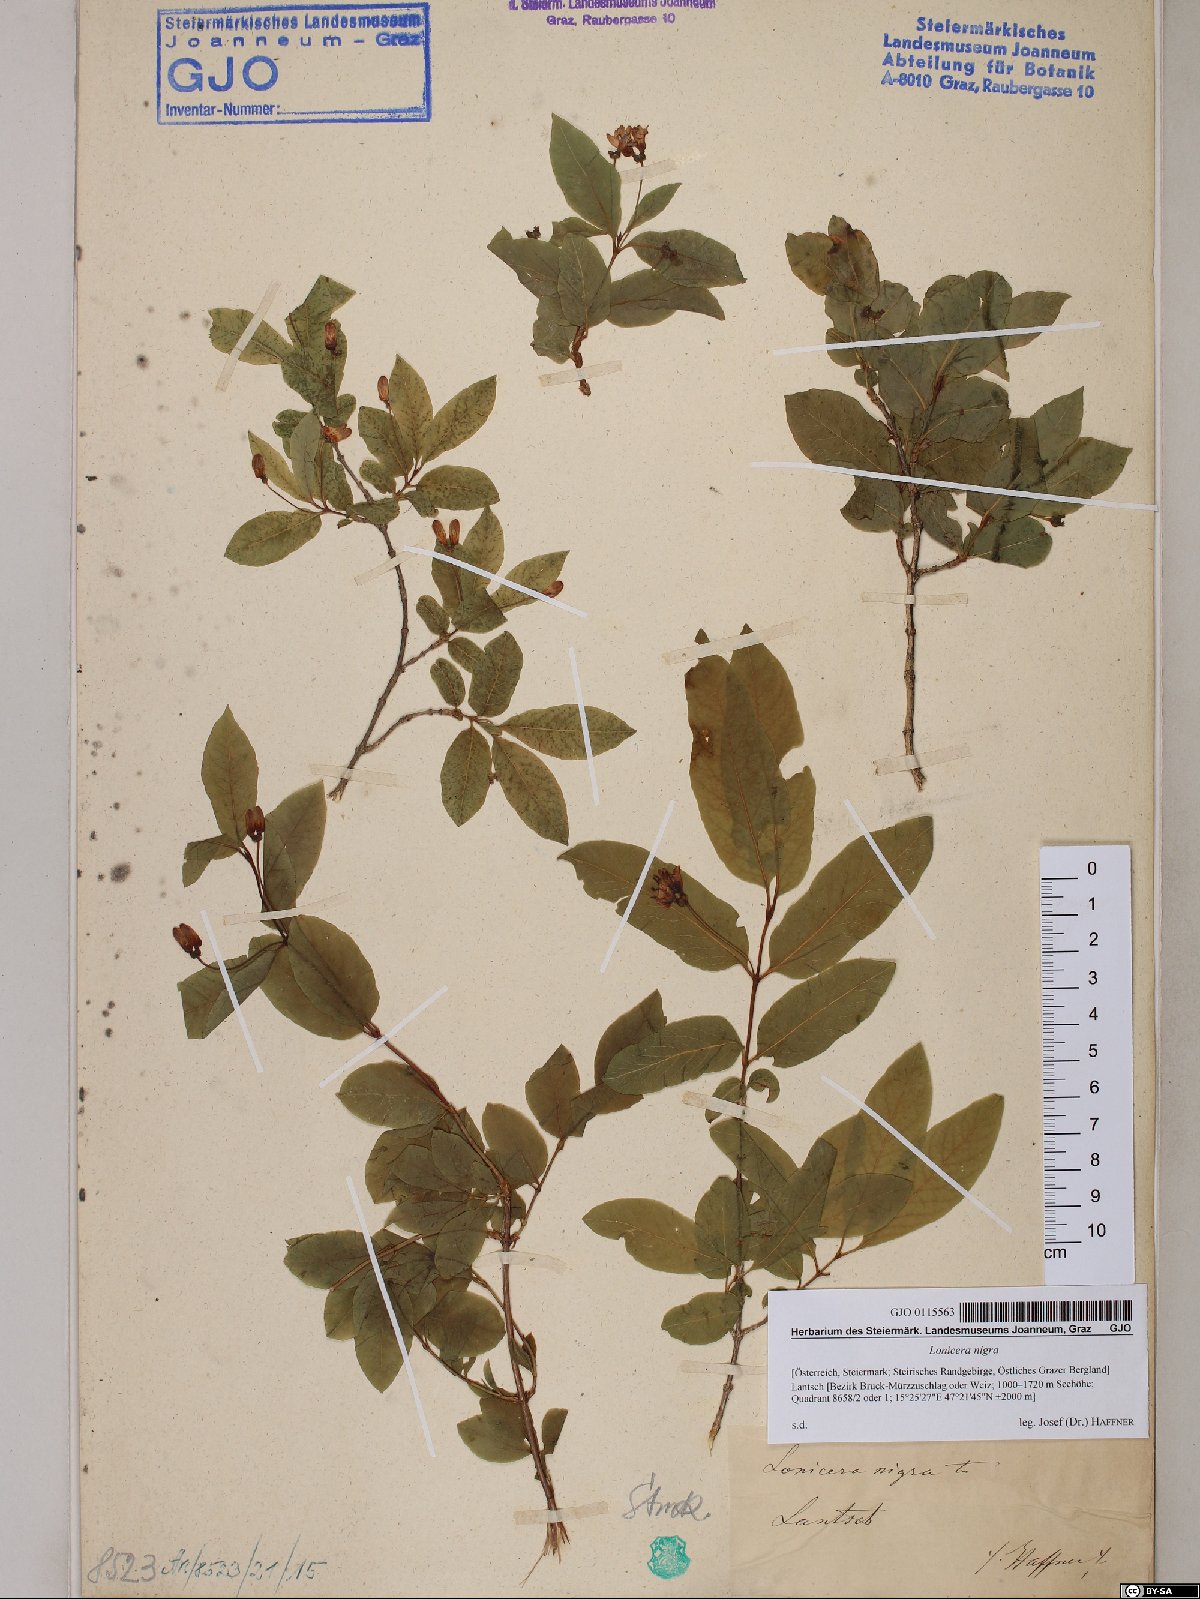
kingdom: Plantae
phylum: Tracheophyta
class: Magnoliopsida
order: Dipsacales
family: Caprifoliaceae
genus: Lonicera
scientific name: Lonicera nigra
